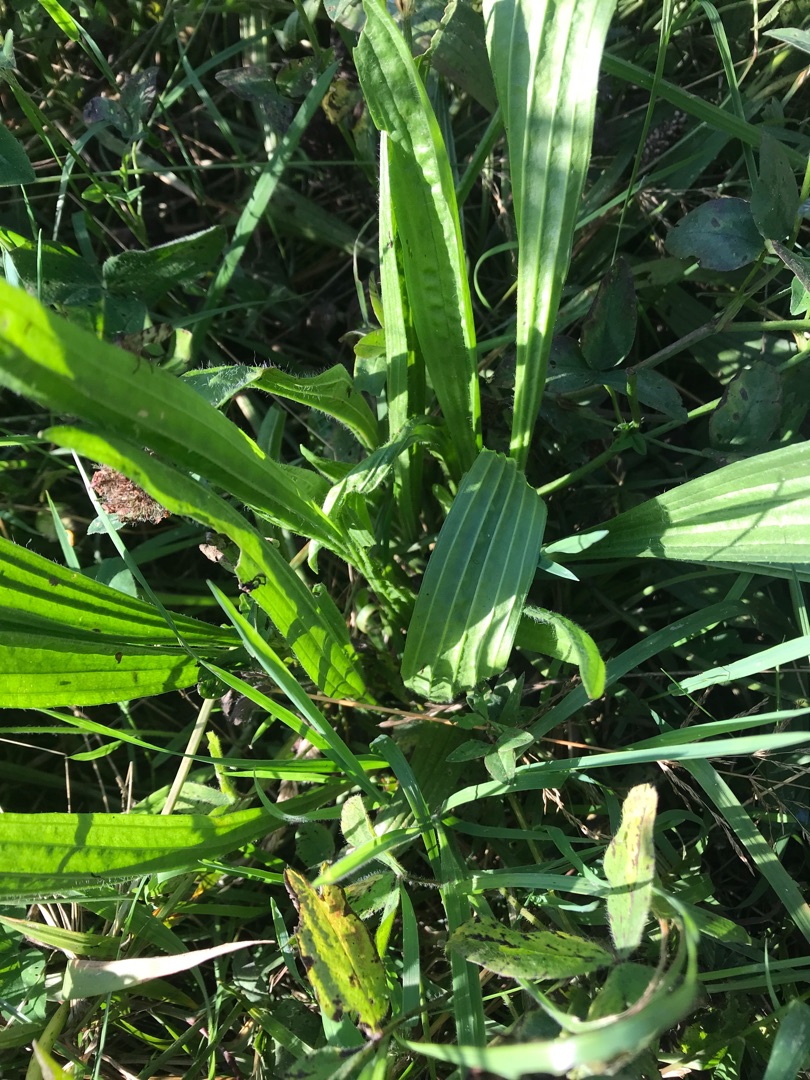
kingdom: Plantae
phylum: Tracheophyta
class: Magnoliopsida
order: Lamiales
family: Plantaginaceae
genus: Plantago
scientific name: Plantago lanceolata
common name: Lancet-vejbred
